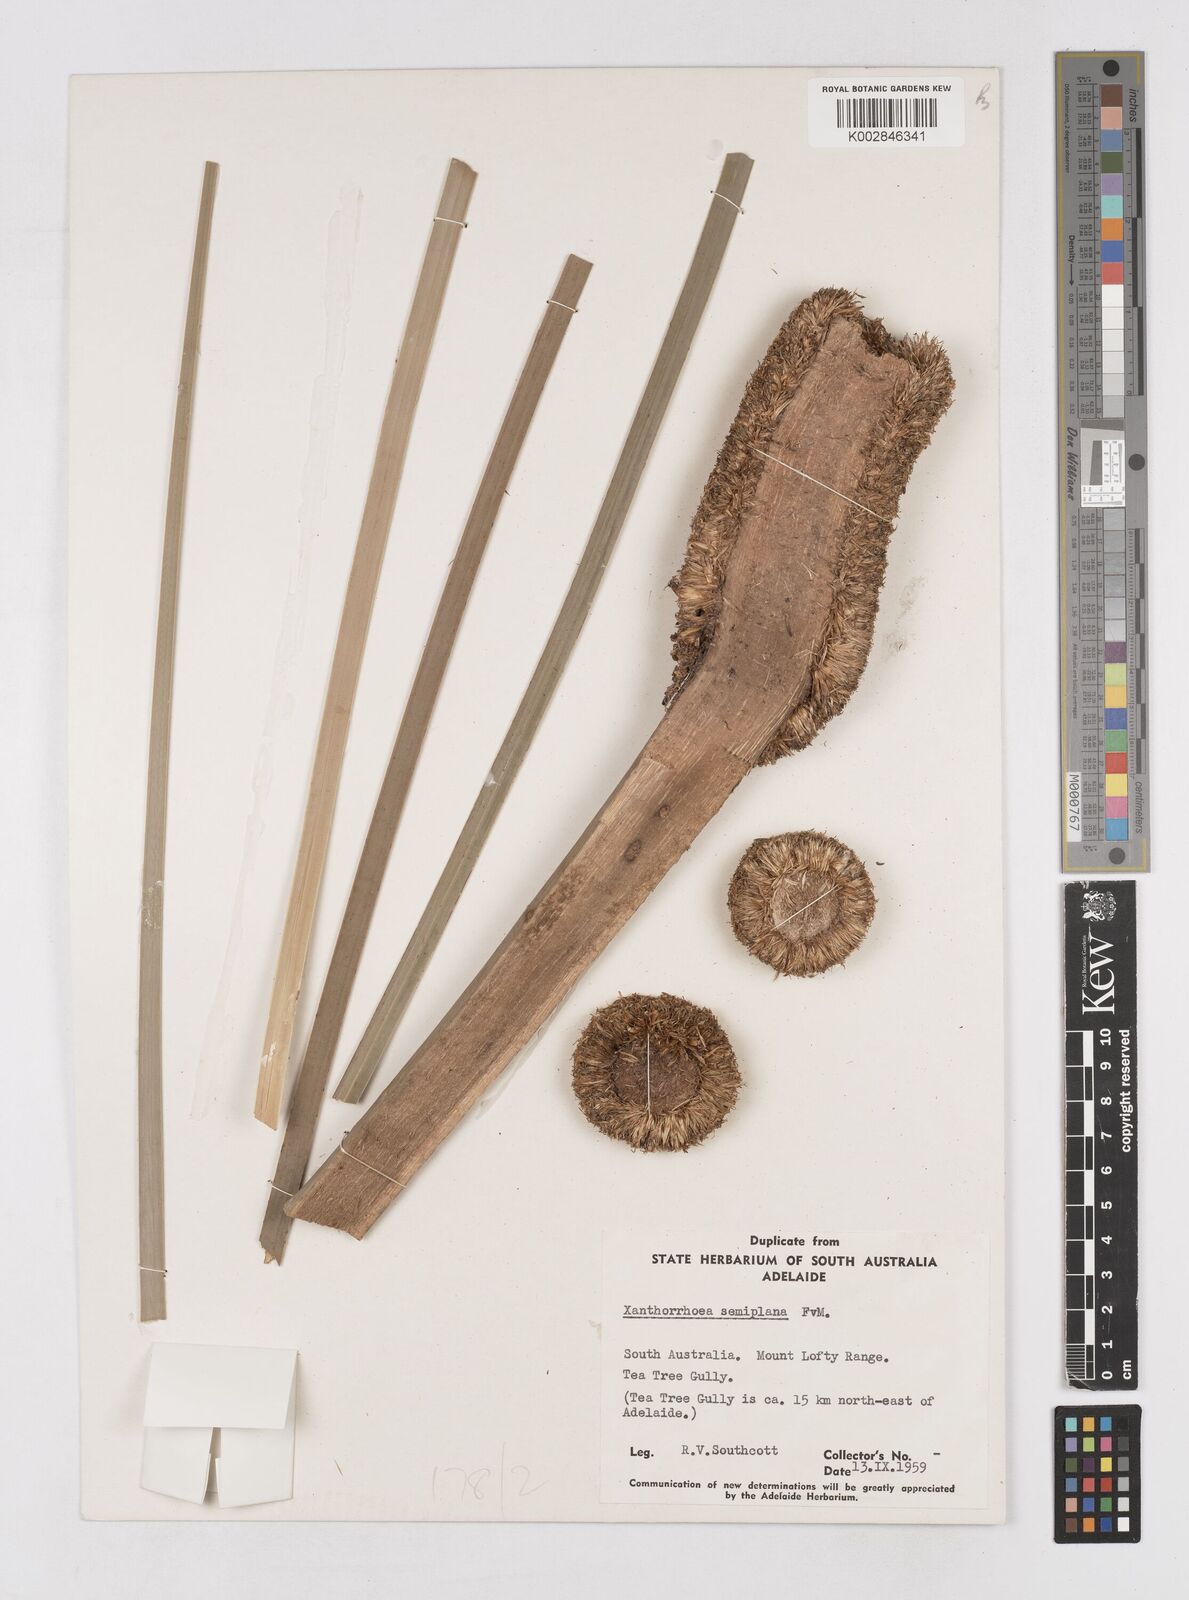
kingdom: Plantae
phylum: Tracheophyta
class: Liliopsida
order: Asparagales
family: Asphodelaceae
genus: Xanthorrhoea
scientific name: Xanthorrhoea semiplana
